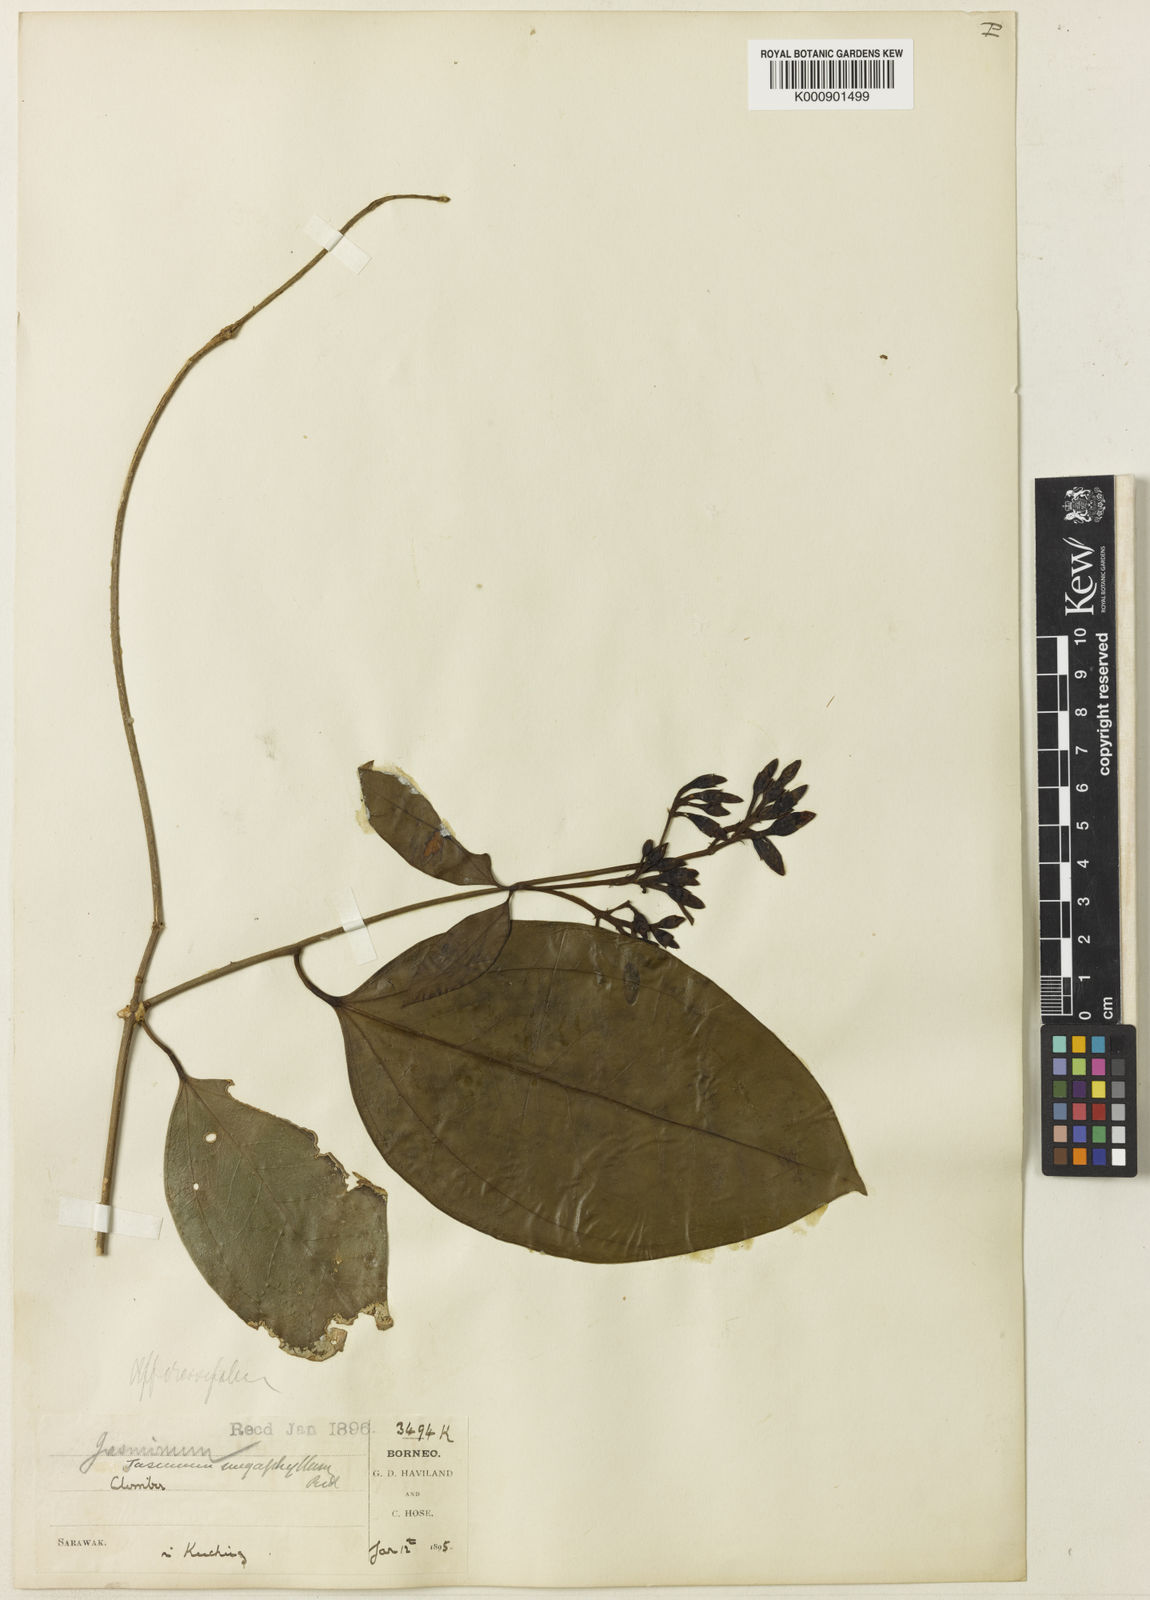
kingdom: Plantae
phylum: Tracheophyta
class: Magnoliopsida
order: Lamiales
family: Oleaceae
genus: Jasminum
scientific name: Jasminum
